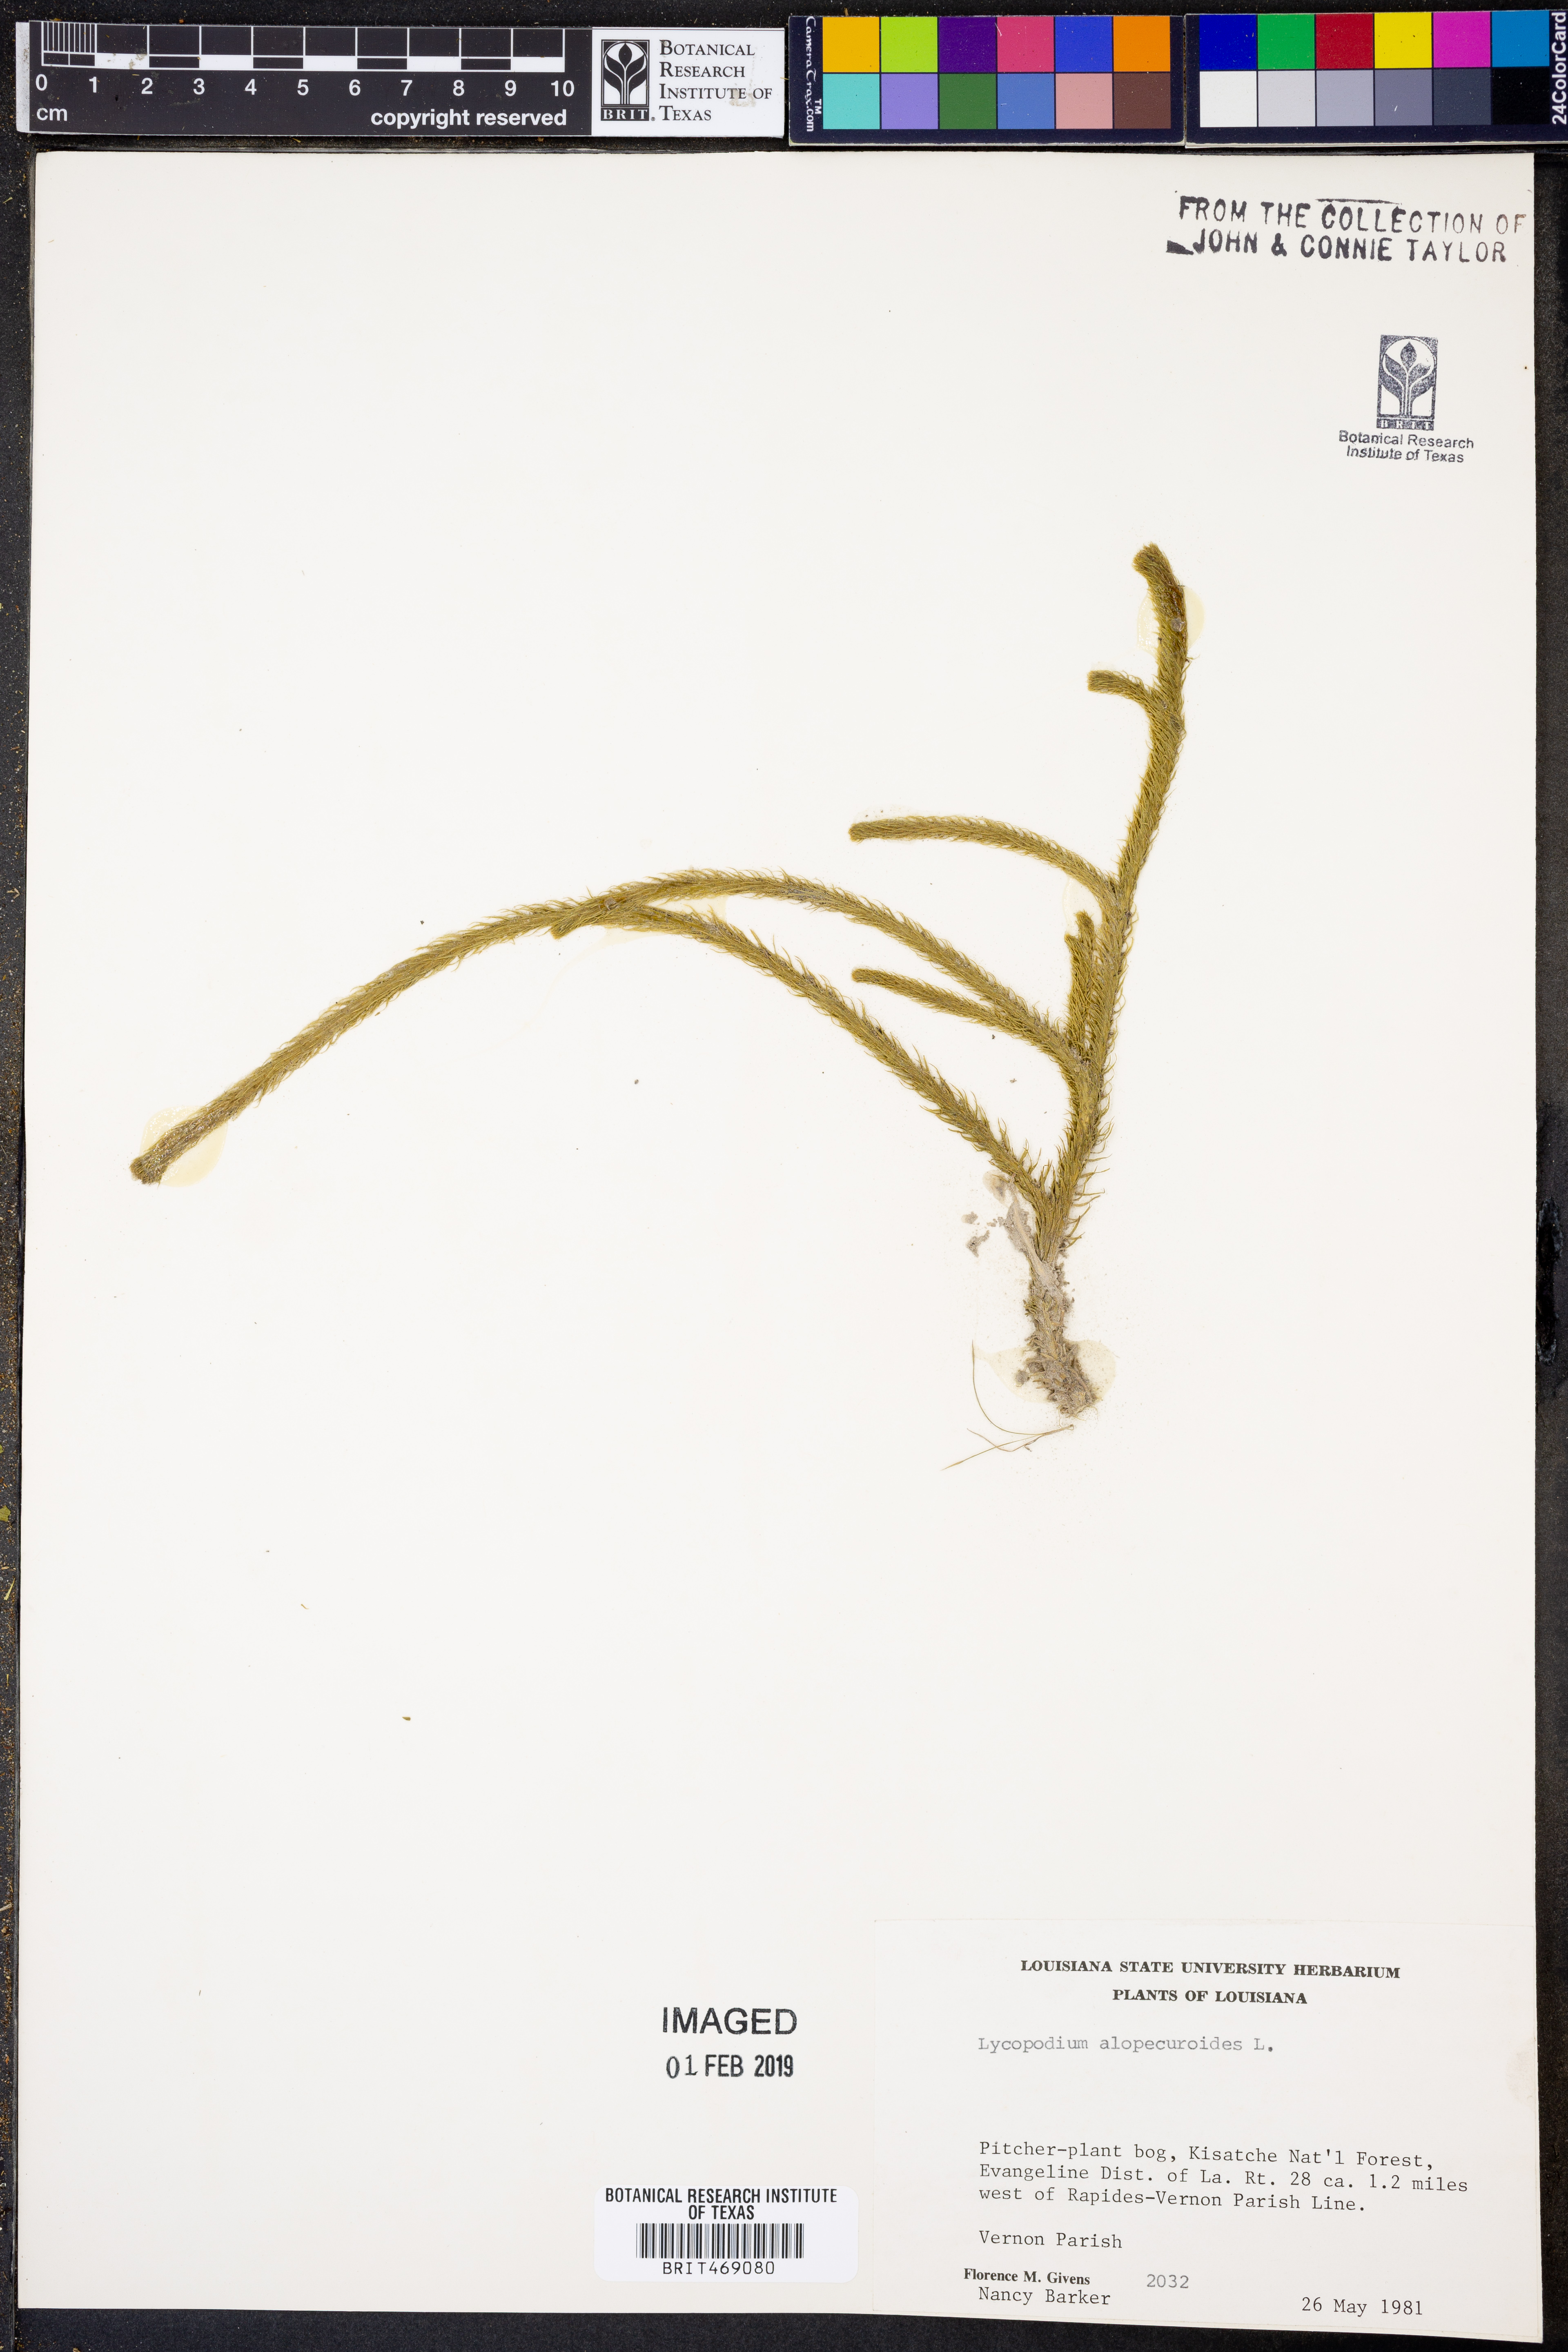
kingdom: Plantae
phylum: Tracheophyta
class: Lycopodiopsida
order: Lycopodiales
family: Lycopodiaceae
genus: Lycopodiella
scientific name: Lycopodiella alopecuroides
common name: Foxtail clubmoss
